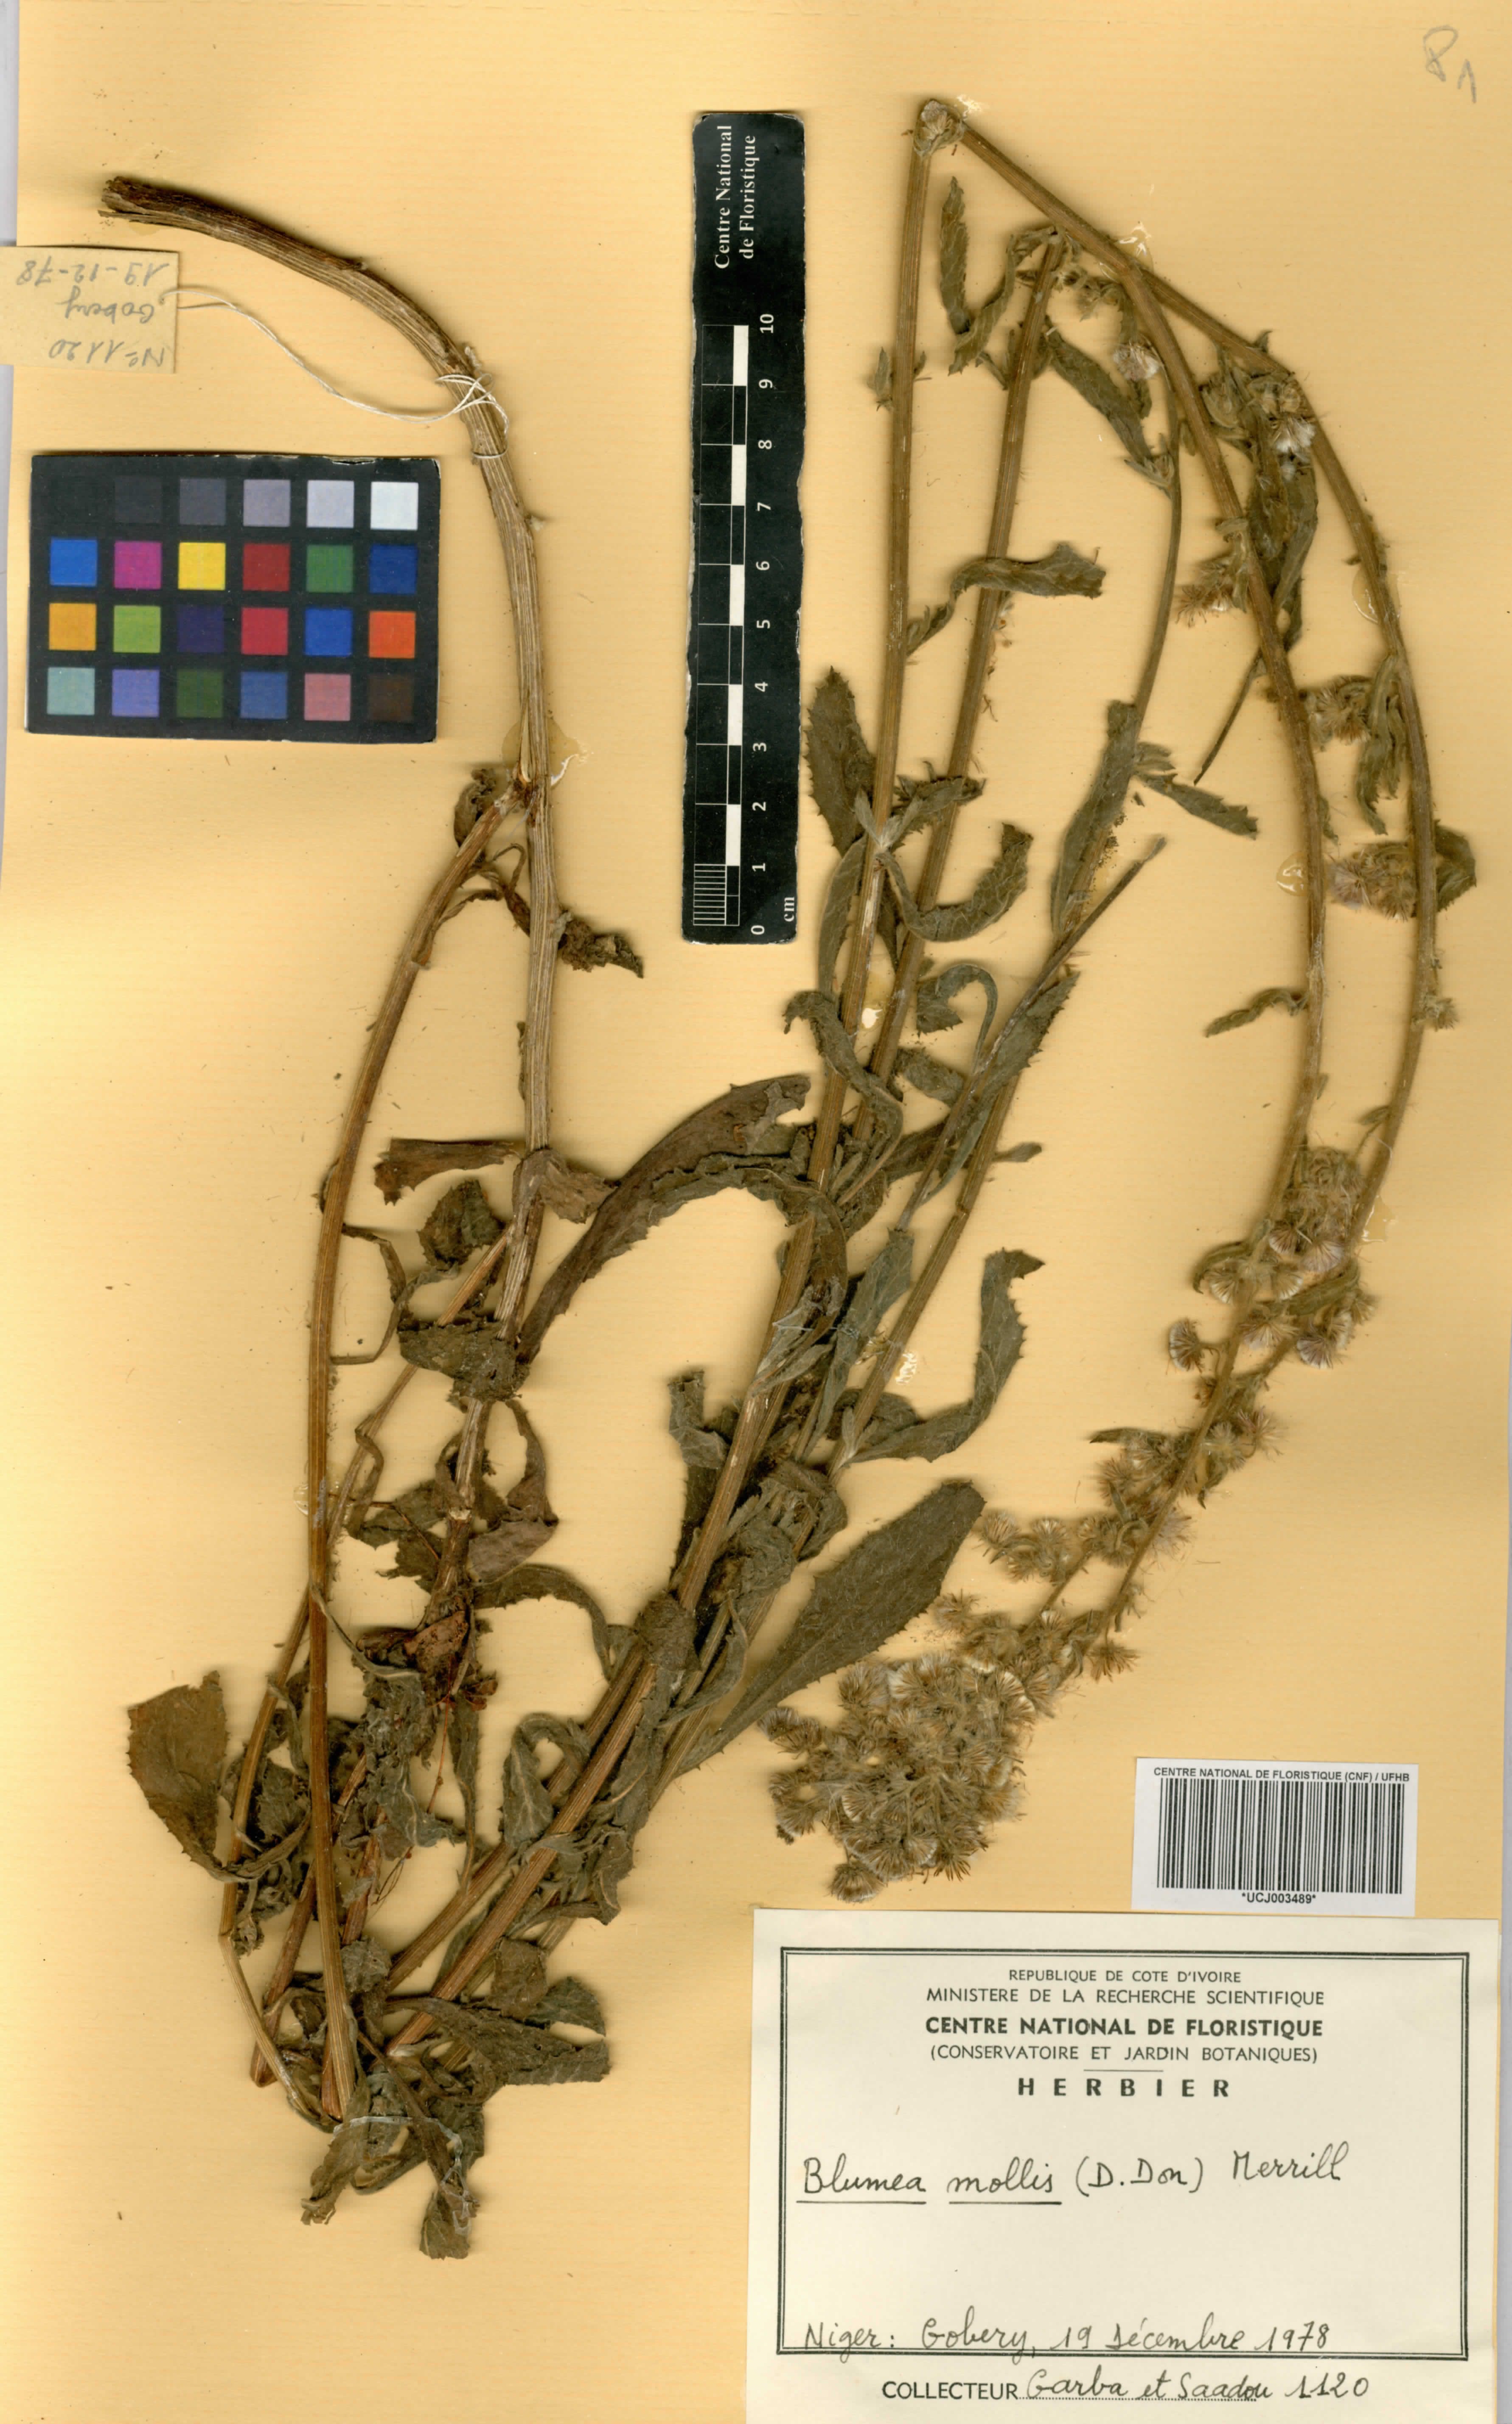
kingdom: Plantae
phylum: Tracheophyta
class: Magnoliopsida
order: Asterales
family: Asteraceae
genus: Blumea
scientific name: Blumea axillaris
